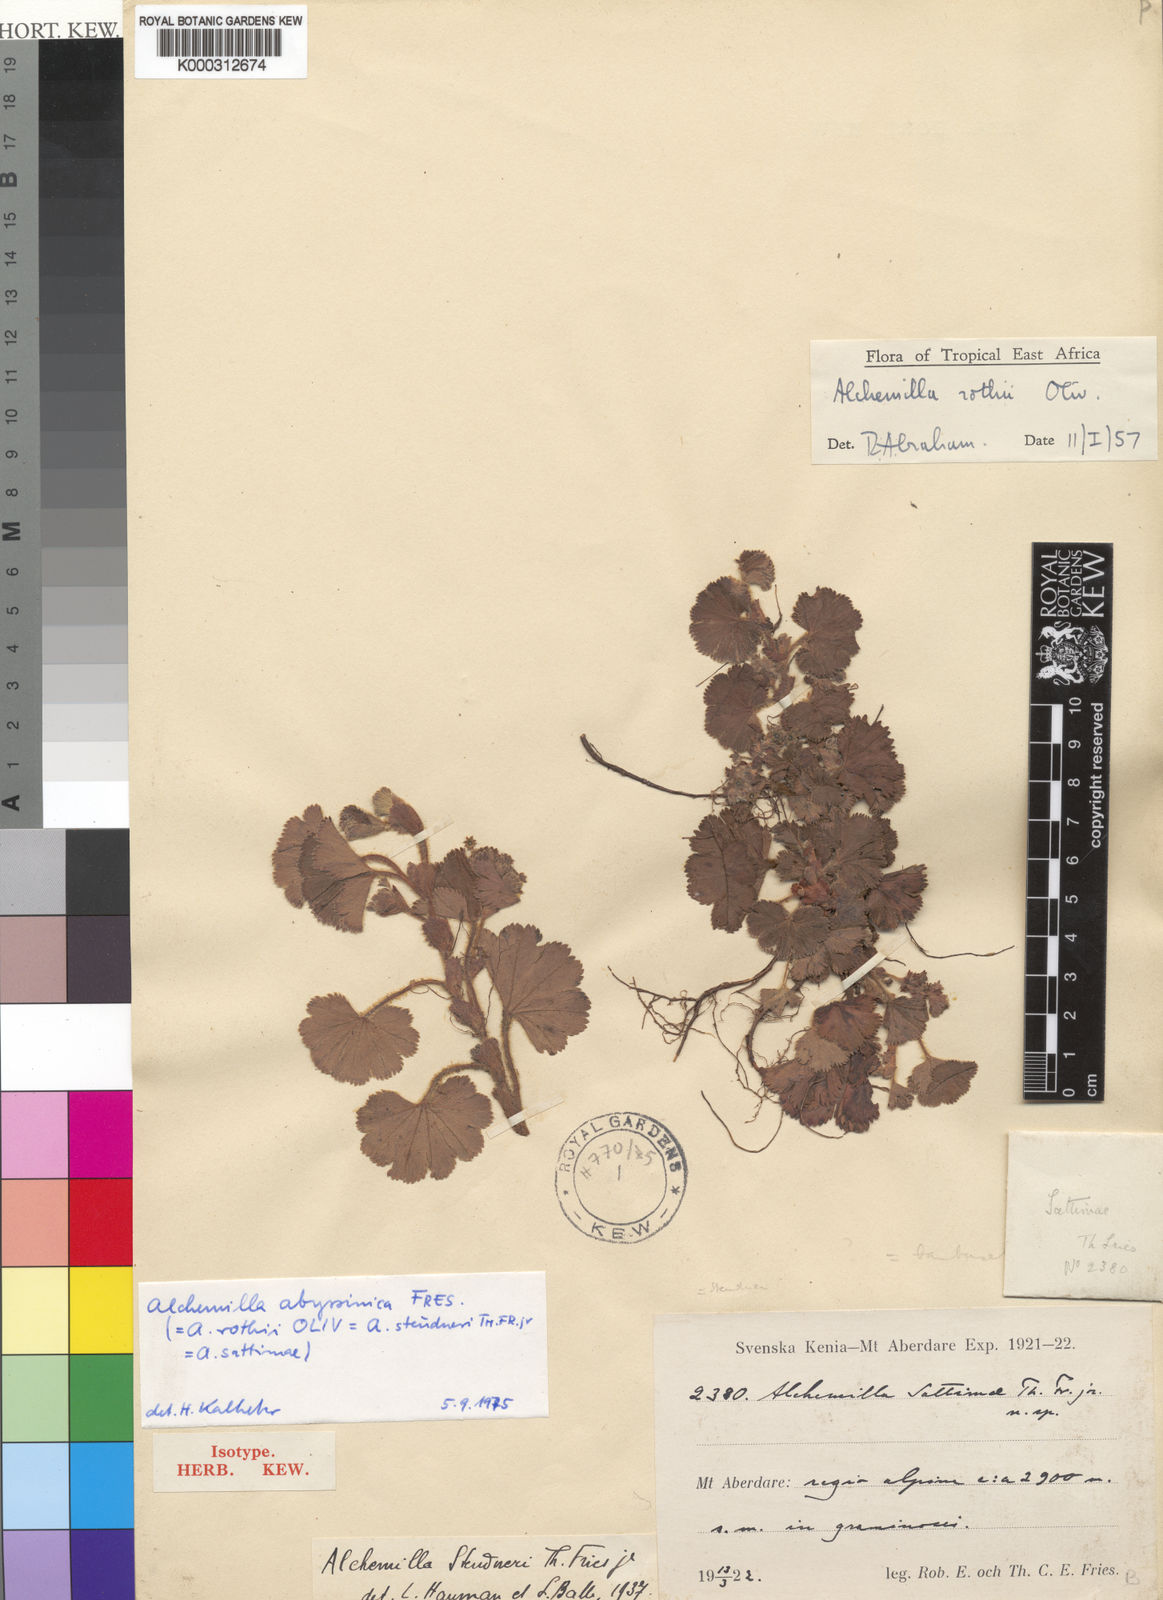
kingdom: Plantae
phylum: Tracheophyta
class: Magnoliopsida
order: Rosales
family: Rosaceae
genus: Alchemilla
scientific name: Alchemilla abyssinica
